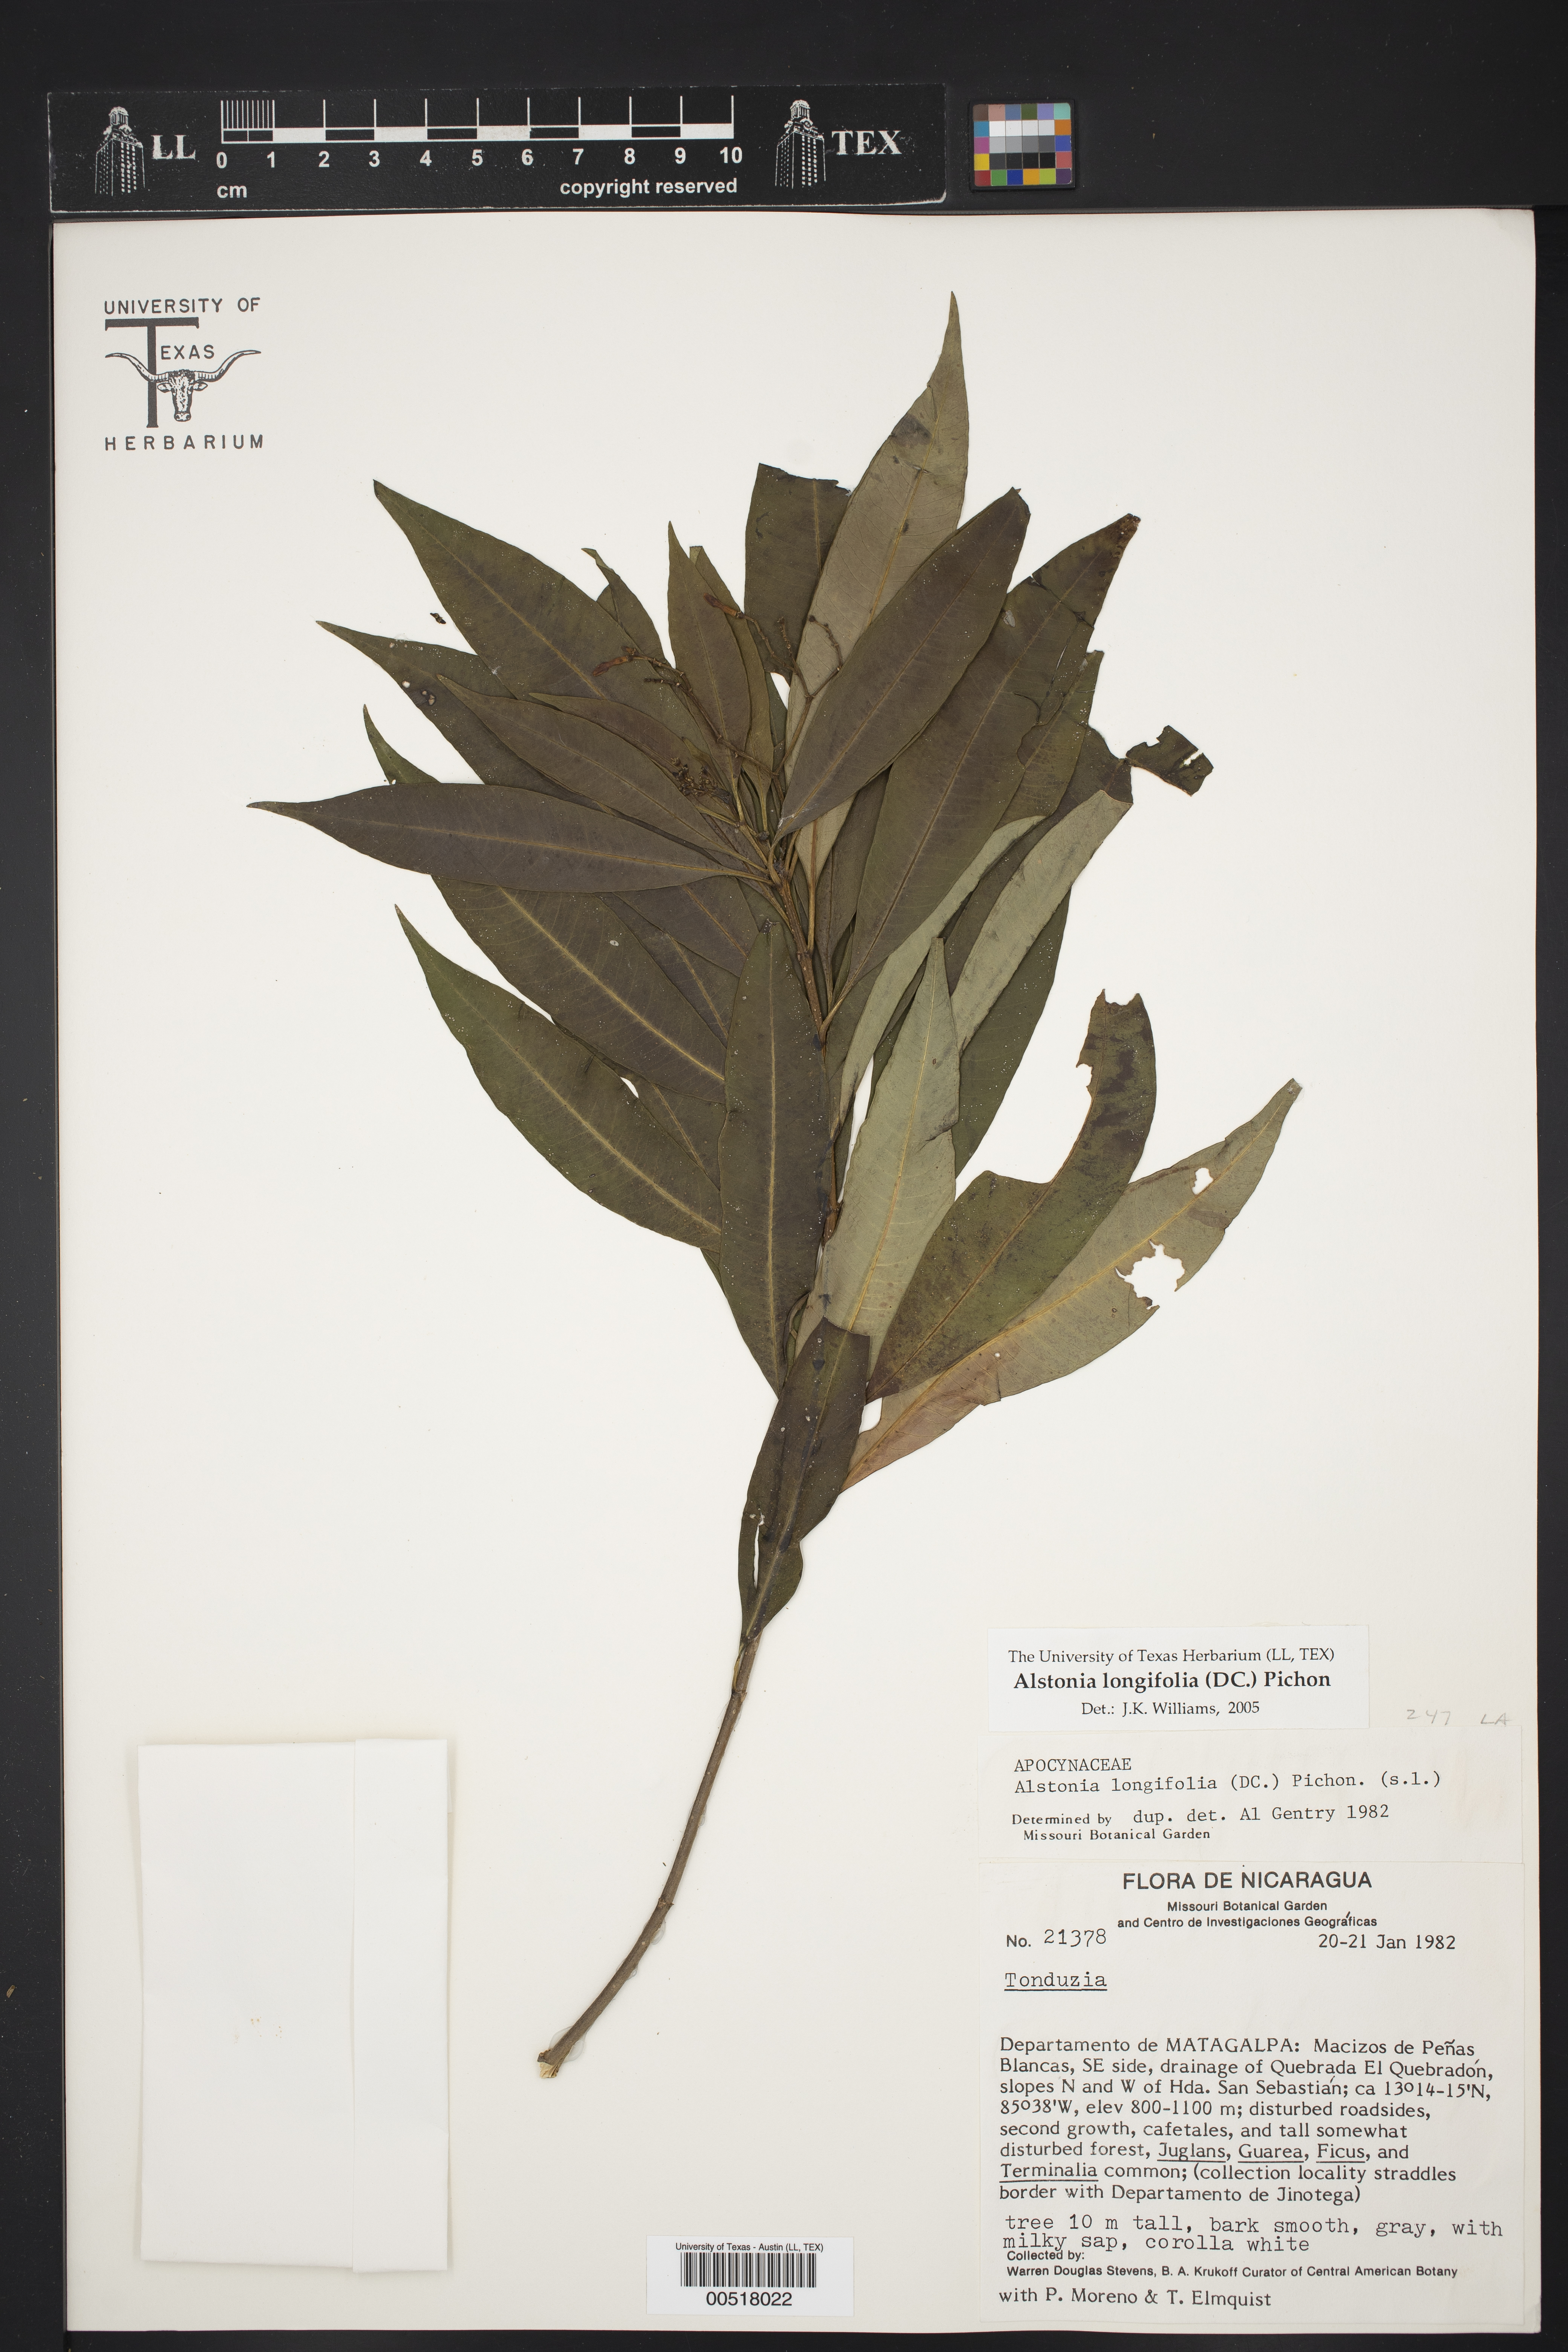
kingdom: Plantae
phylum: Tracheophyta
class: Magnoliopsida
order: Gentianales
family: Apocynaceae
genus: Tonduzia
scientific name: Tonduzia longifolia
